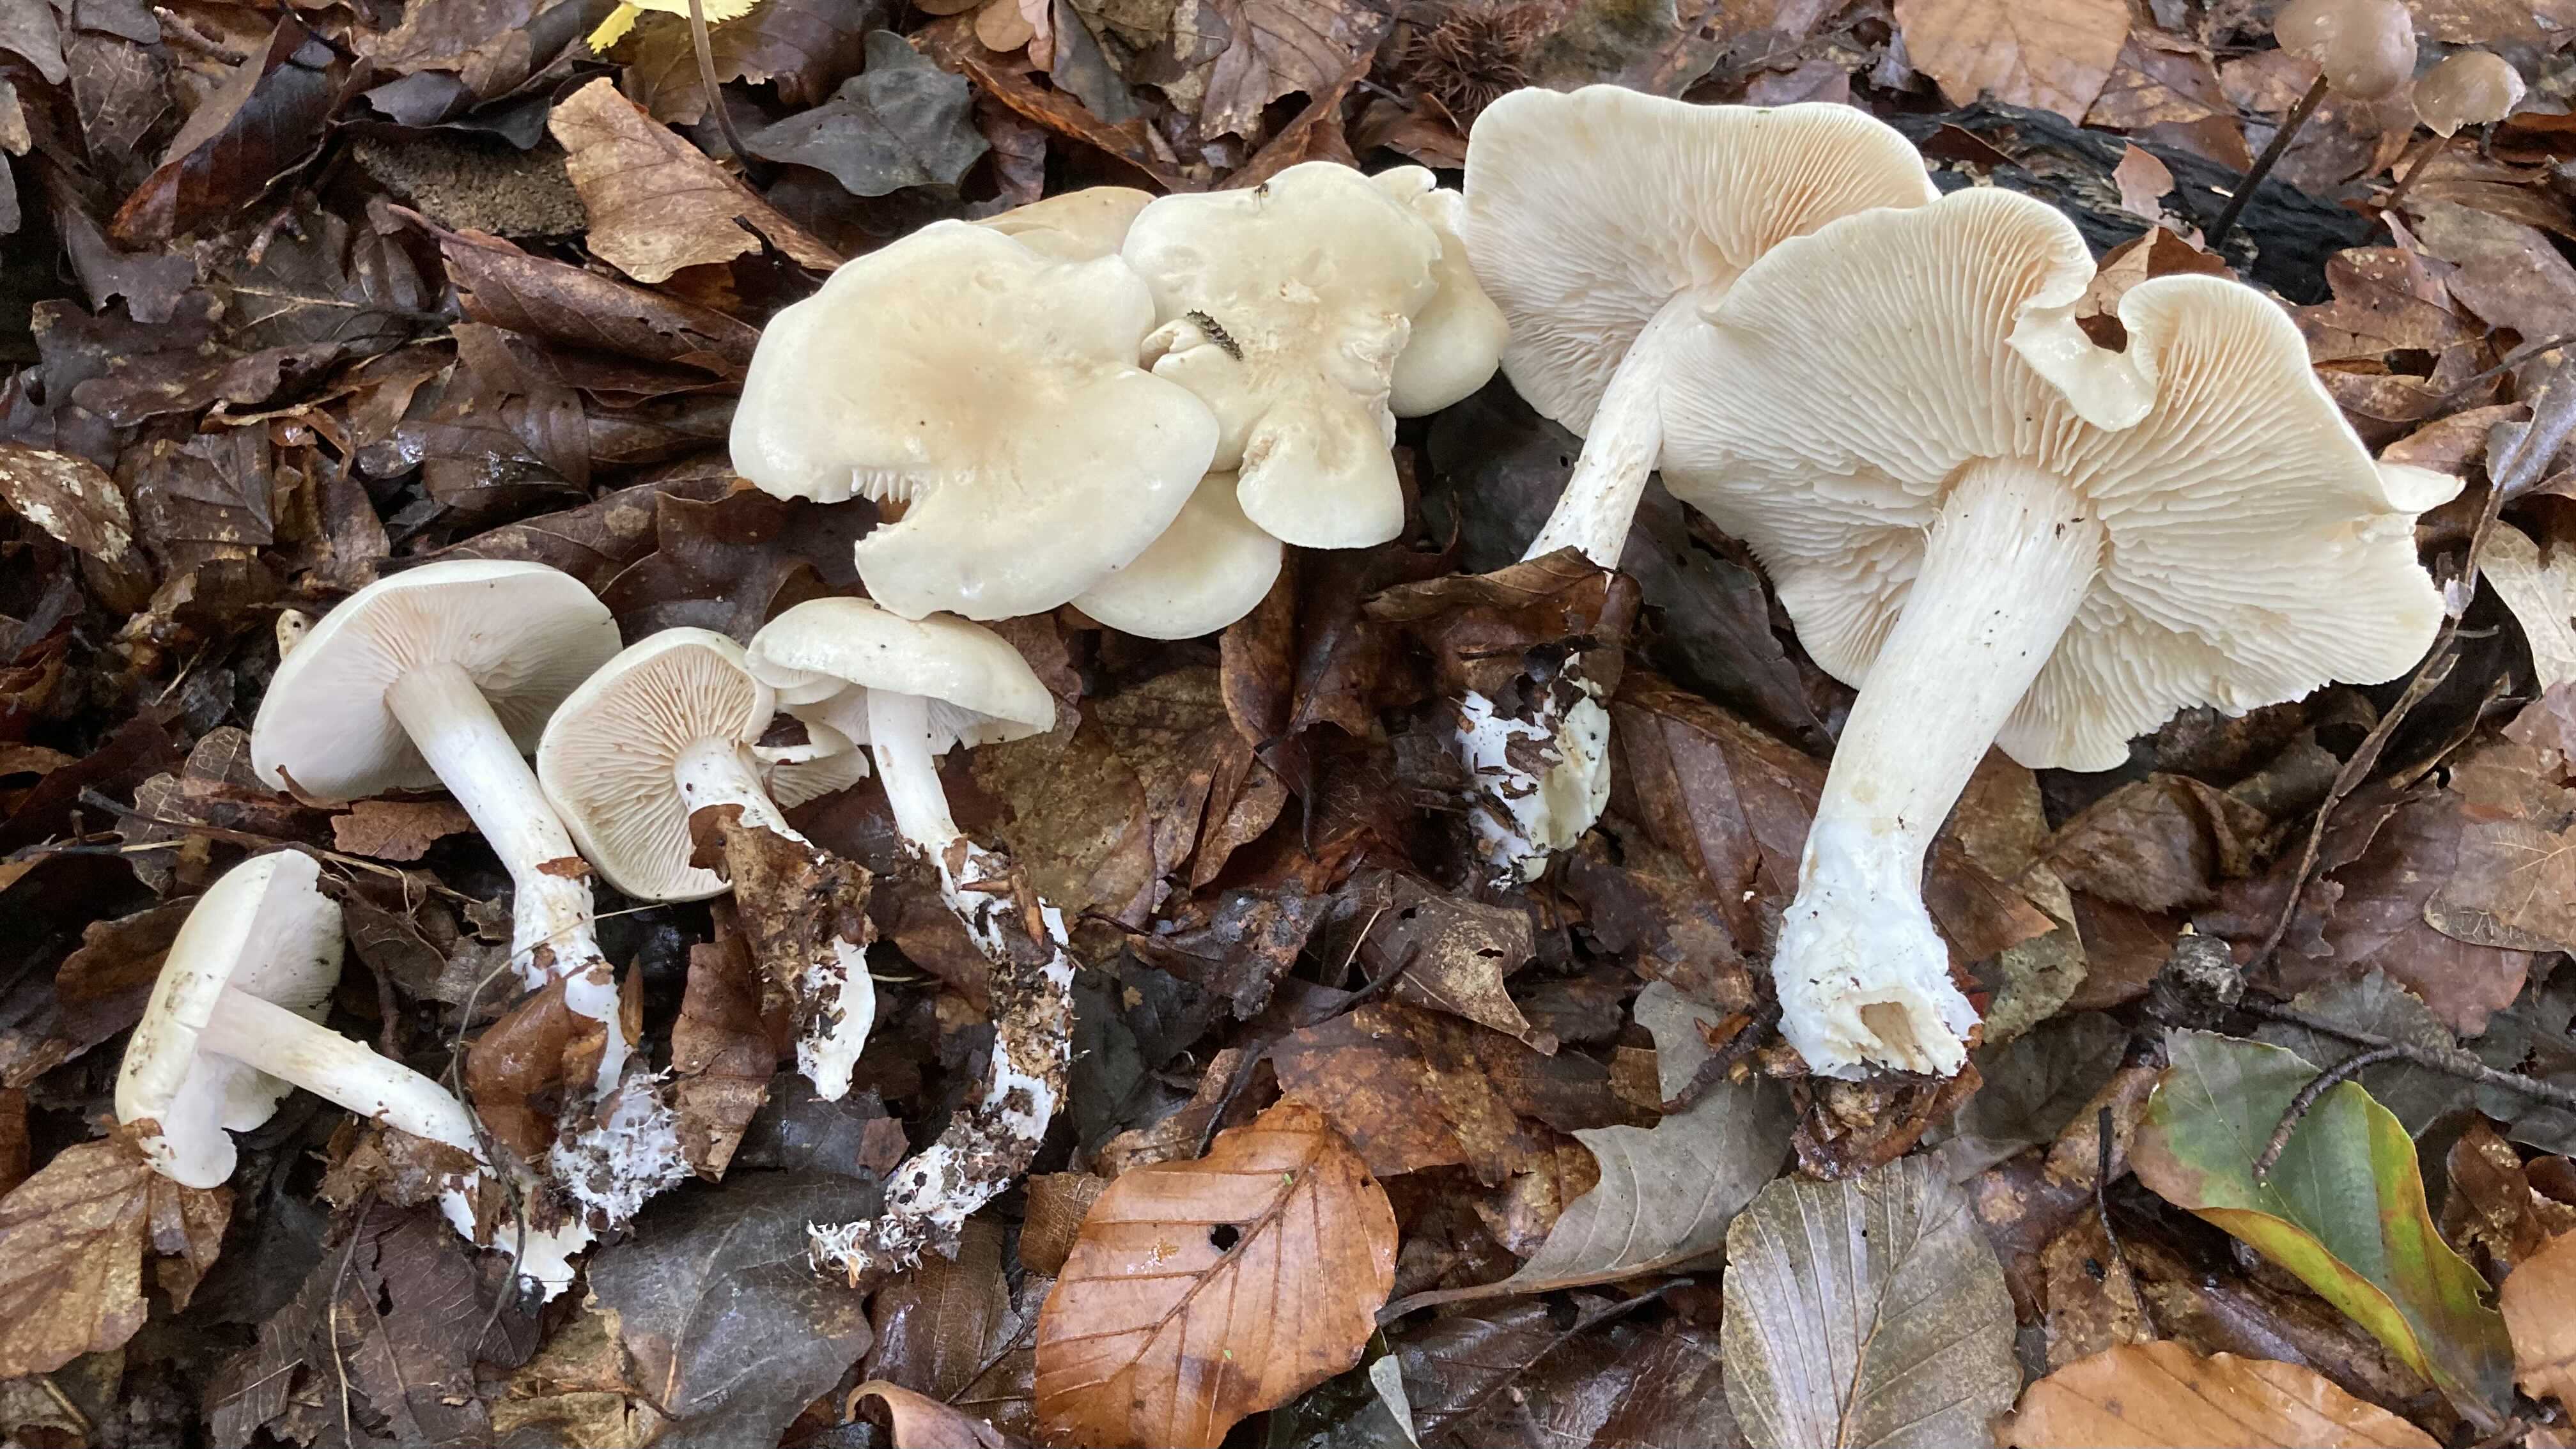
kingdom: Fungi
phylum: Basidiomycota
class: Agaricomycetes
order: Agaricales
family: Tricholomataceae
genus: Tricholoma
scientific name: Tricholoma lascivum
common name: stinkende ridderhat
